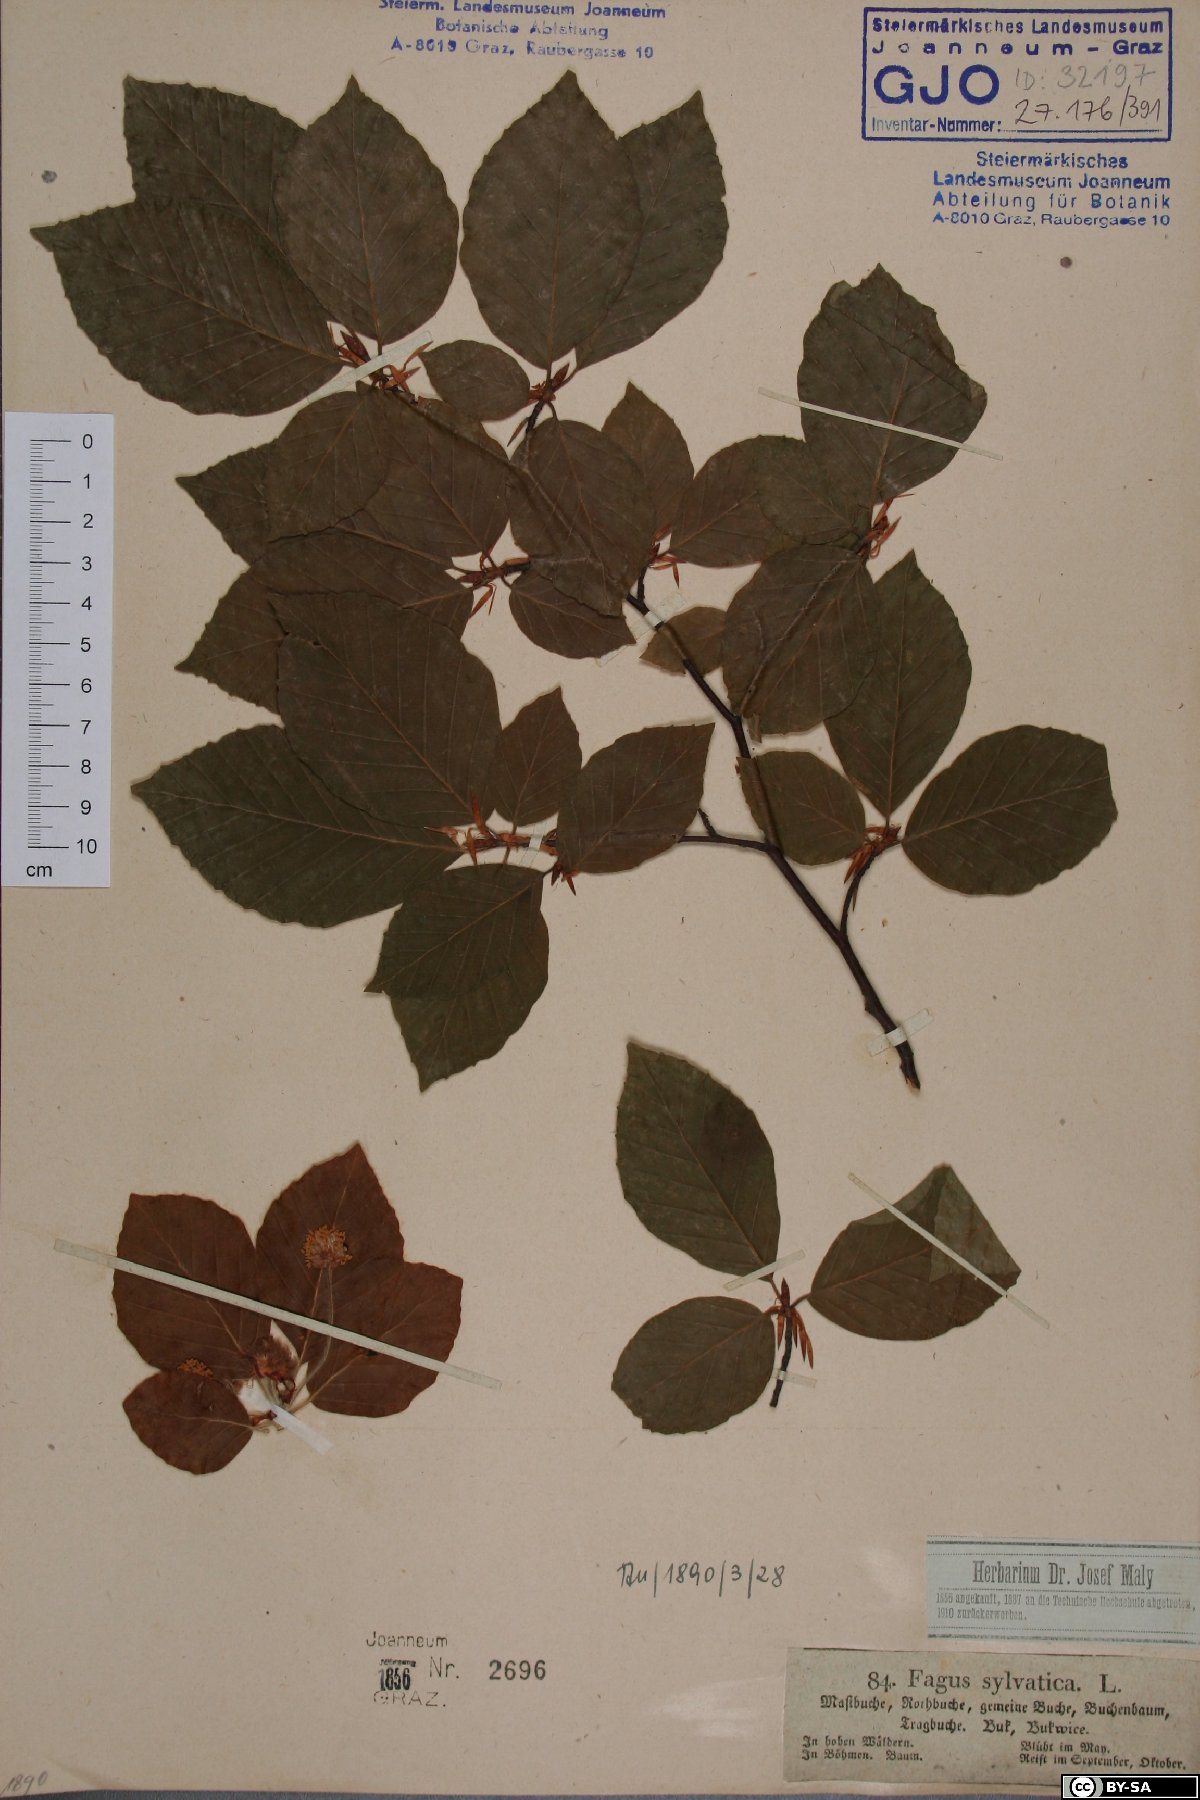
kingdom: Plantae
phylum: Tracheophyta
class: Magnoliopsida
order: Fagales
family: Fagaceae
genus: Fagus
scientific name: Fagus sylvatica
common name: Beech
